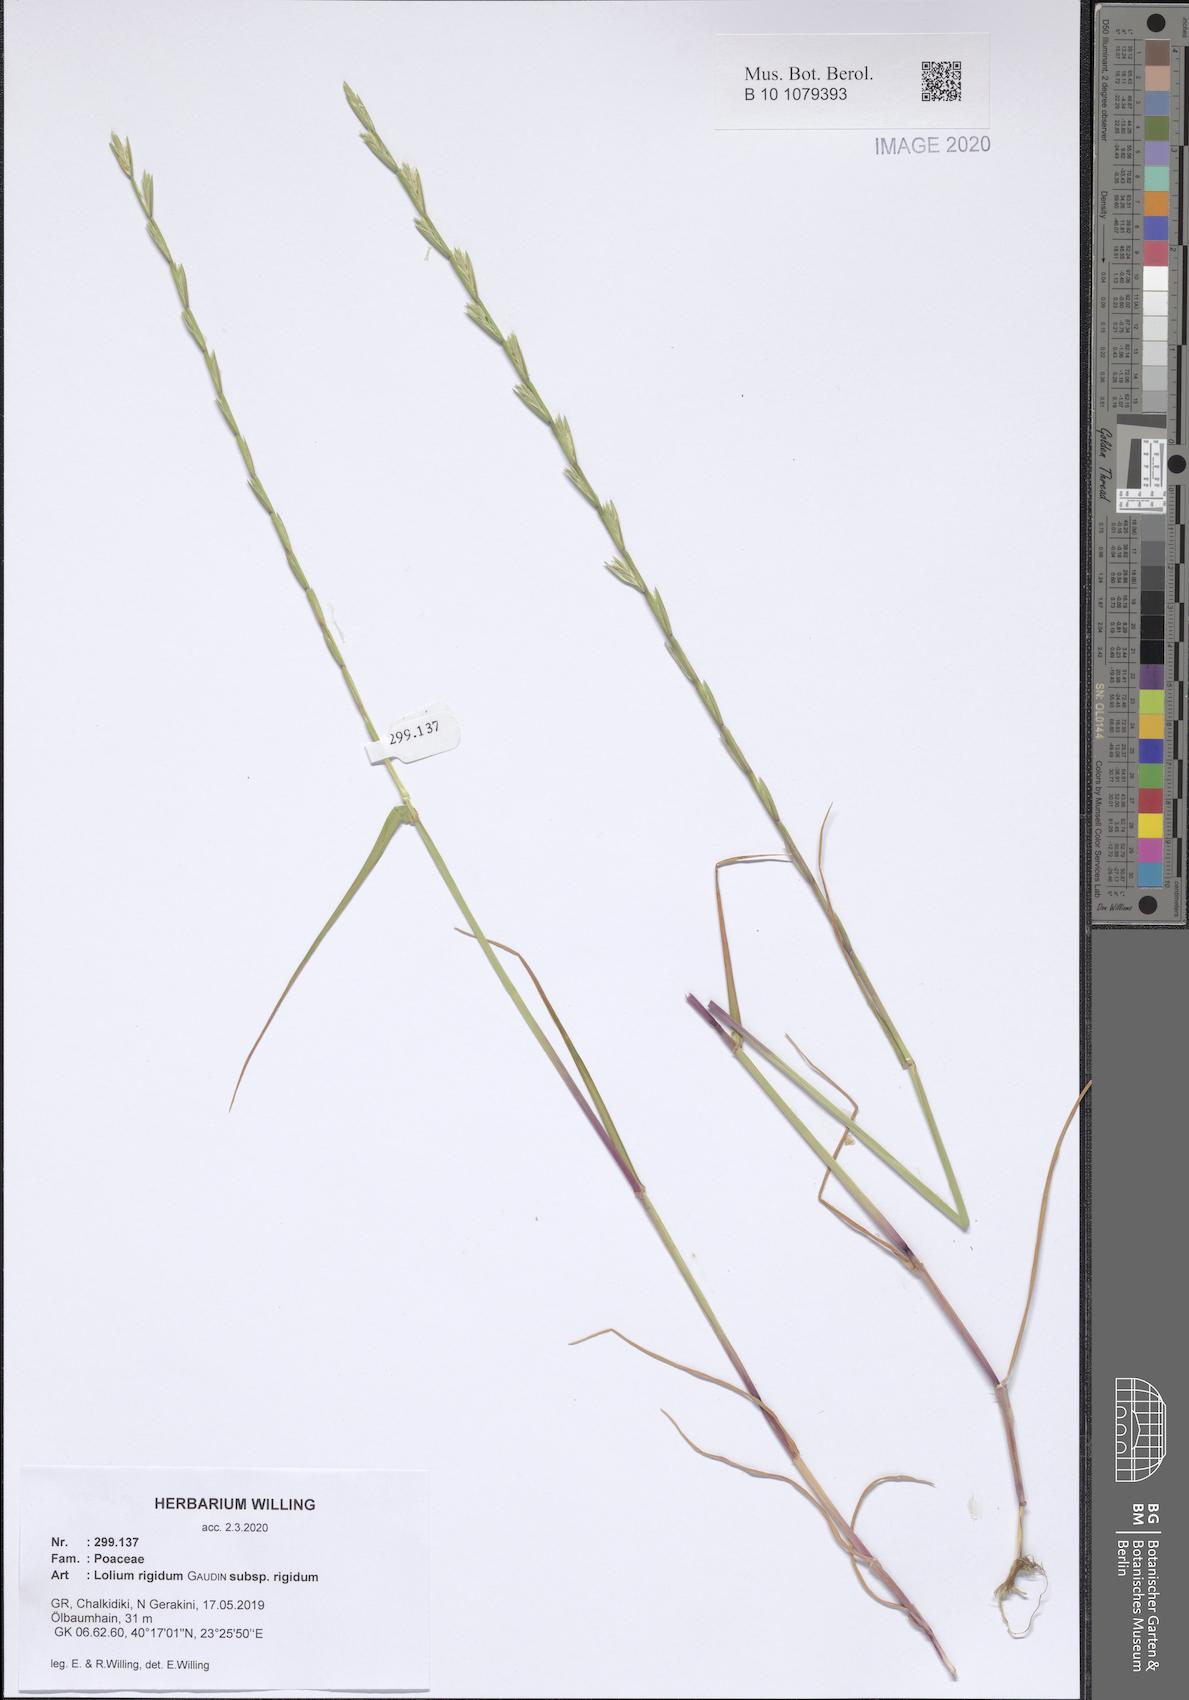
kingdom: Plantae
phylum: Tracheophyta
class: Liliopsida
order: Poales
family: Poaceae
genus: Lolium
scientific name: Lolium rigidum
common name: Wimmera ryegrass
